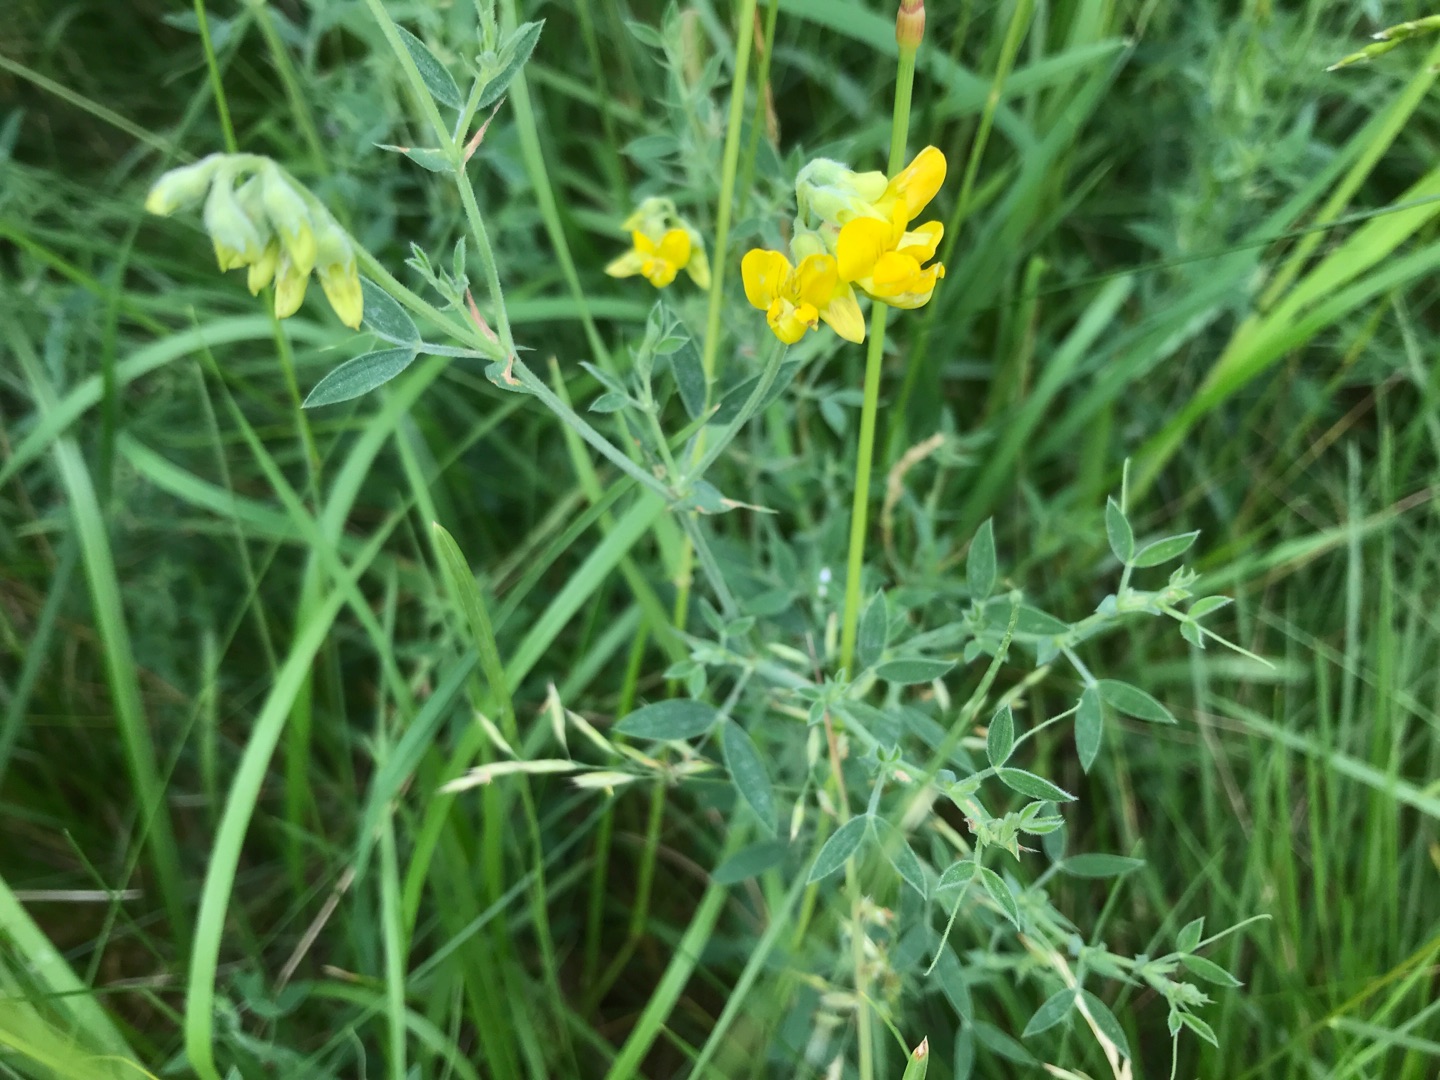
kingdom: Plantae
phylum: Tracheophyta
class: Magnoliopsida
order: Fabales
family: Fabaceae
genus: Lathyrus
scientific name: Lathyrus pratensis
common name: Gul fladbælg
